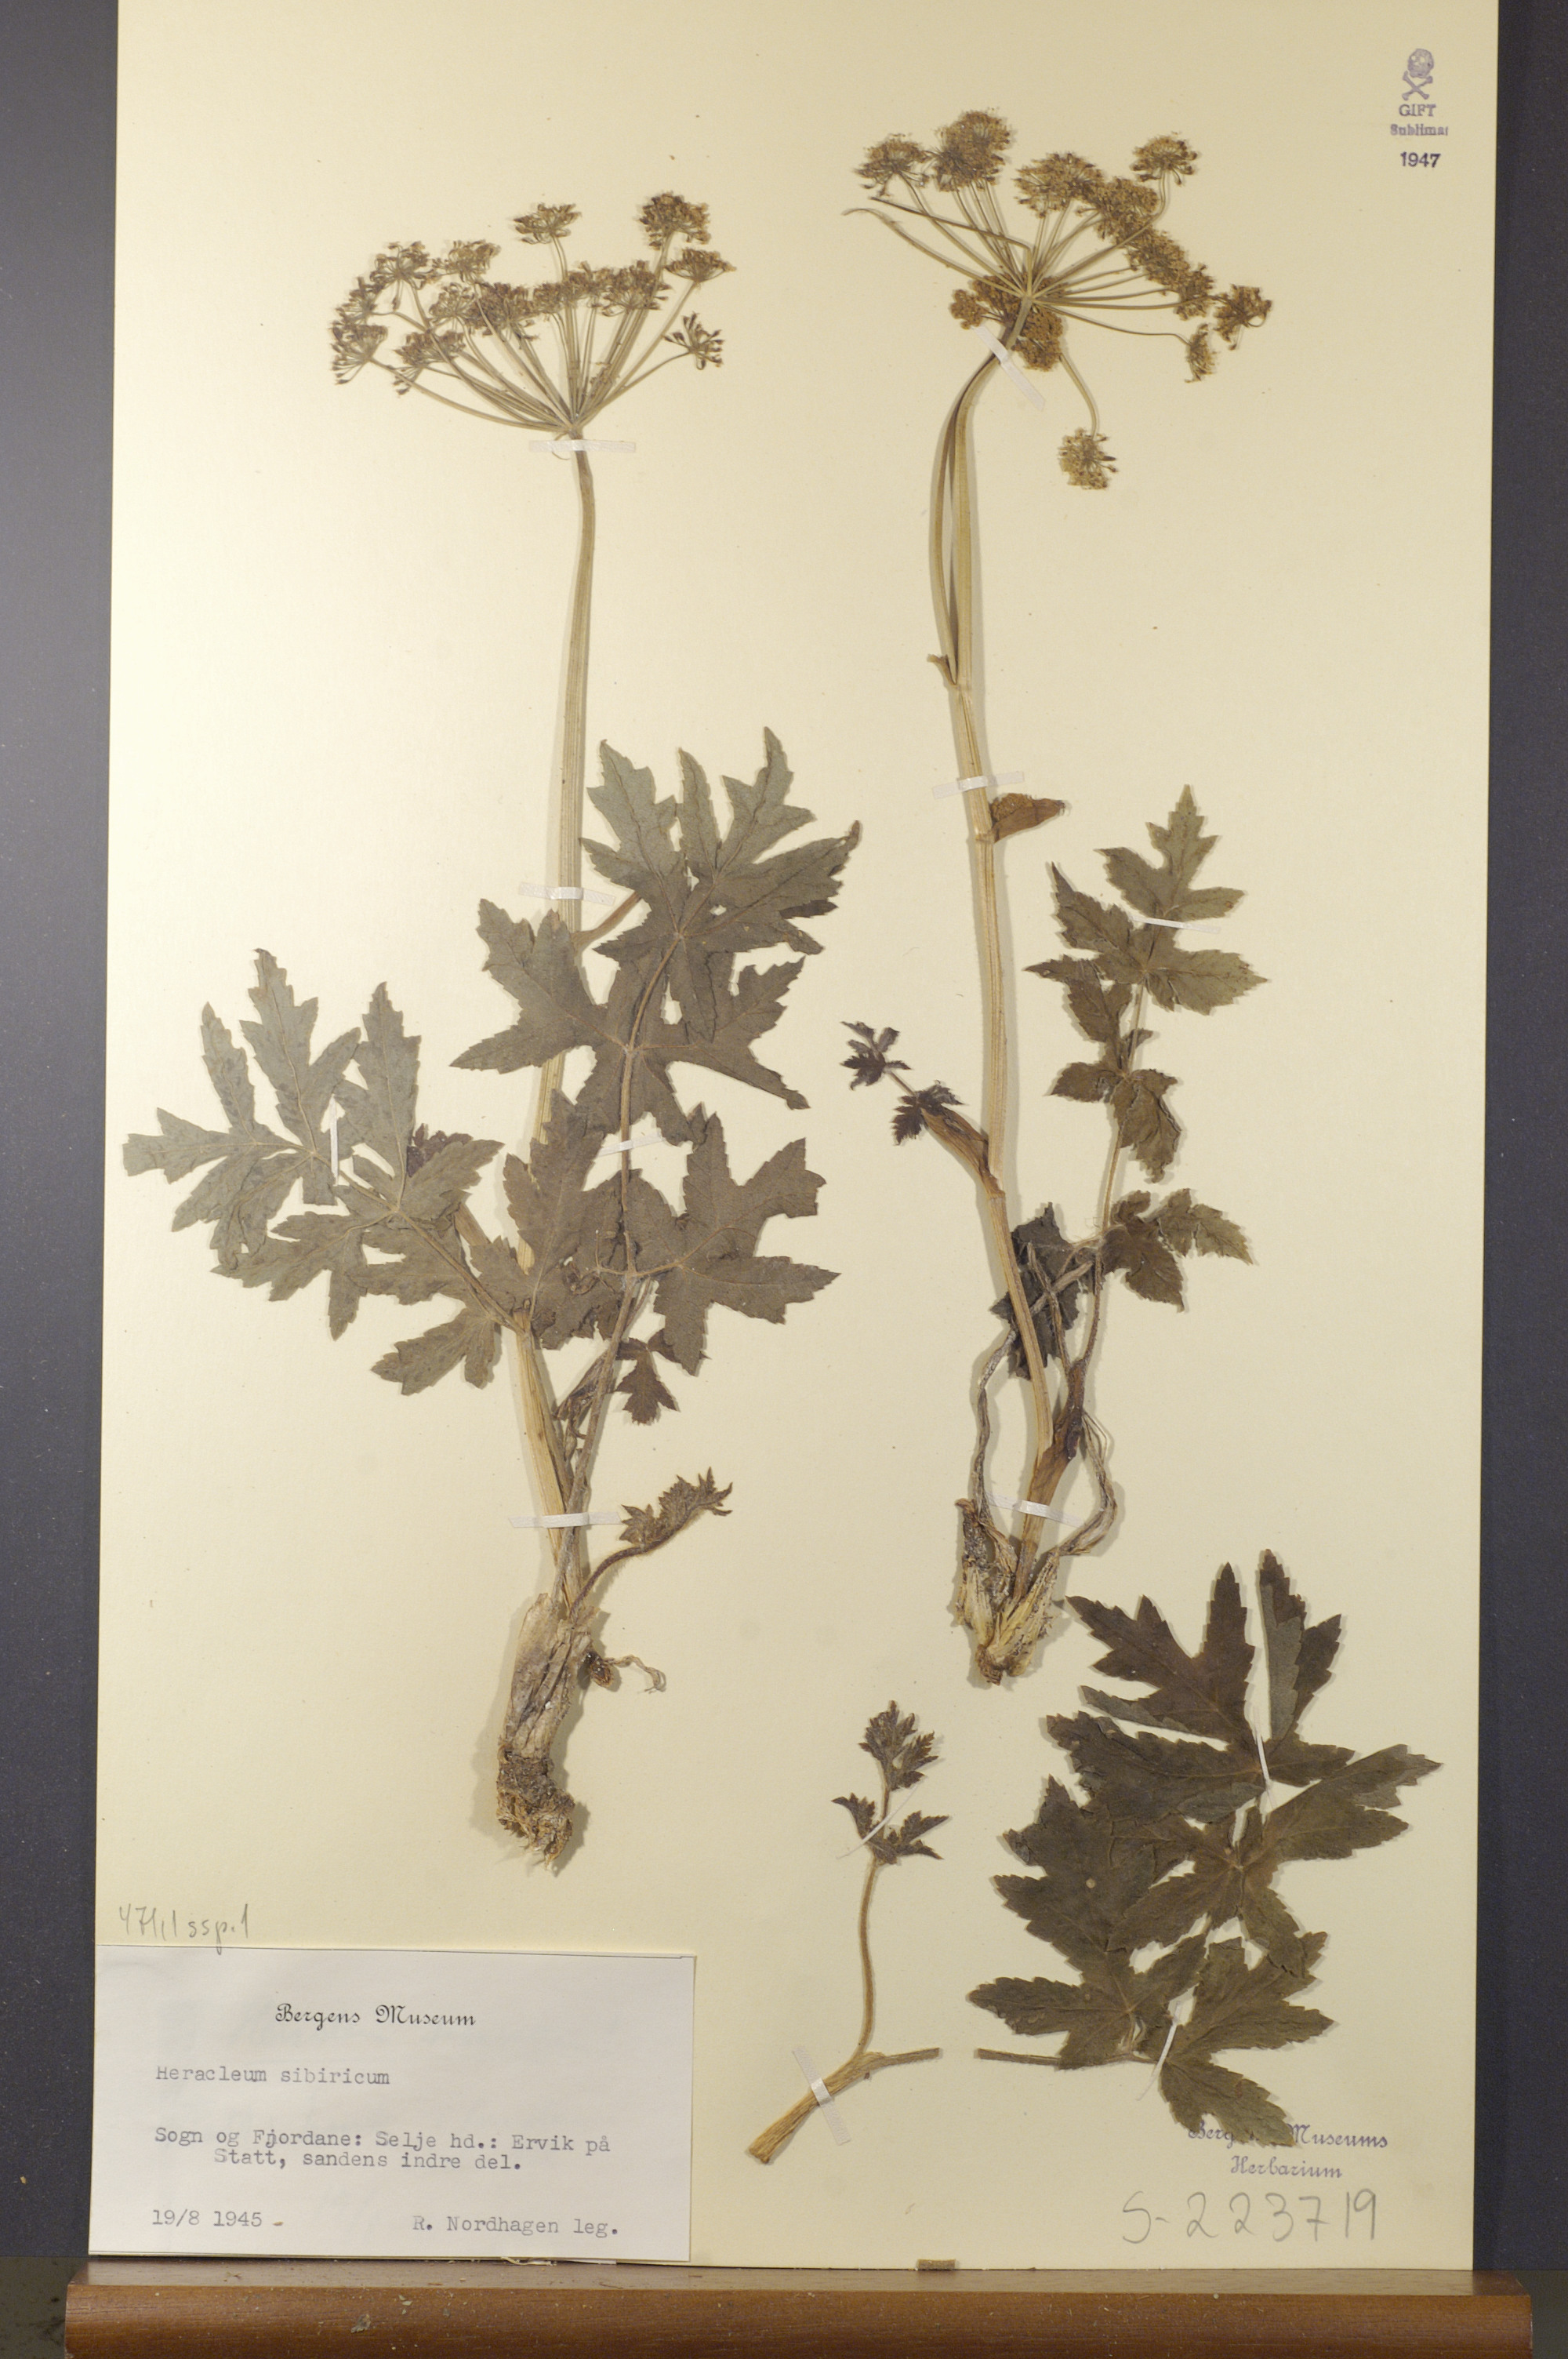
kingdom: Plantae
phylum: Tracheophyta
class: Magnoliopsida
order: Apiales
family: Apiaceae
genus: Heracleum
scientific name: Heracleum sphondylium
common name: Hogweed
